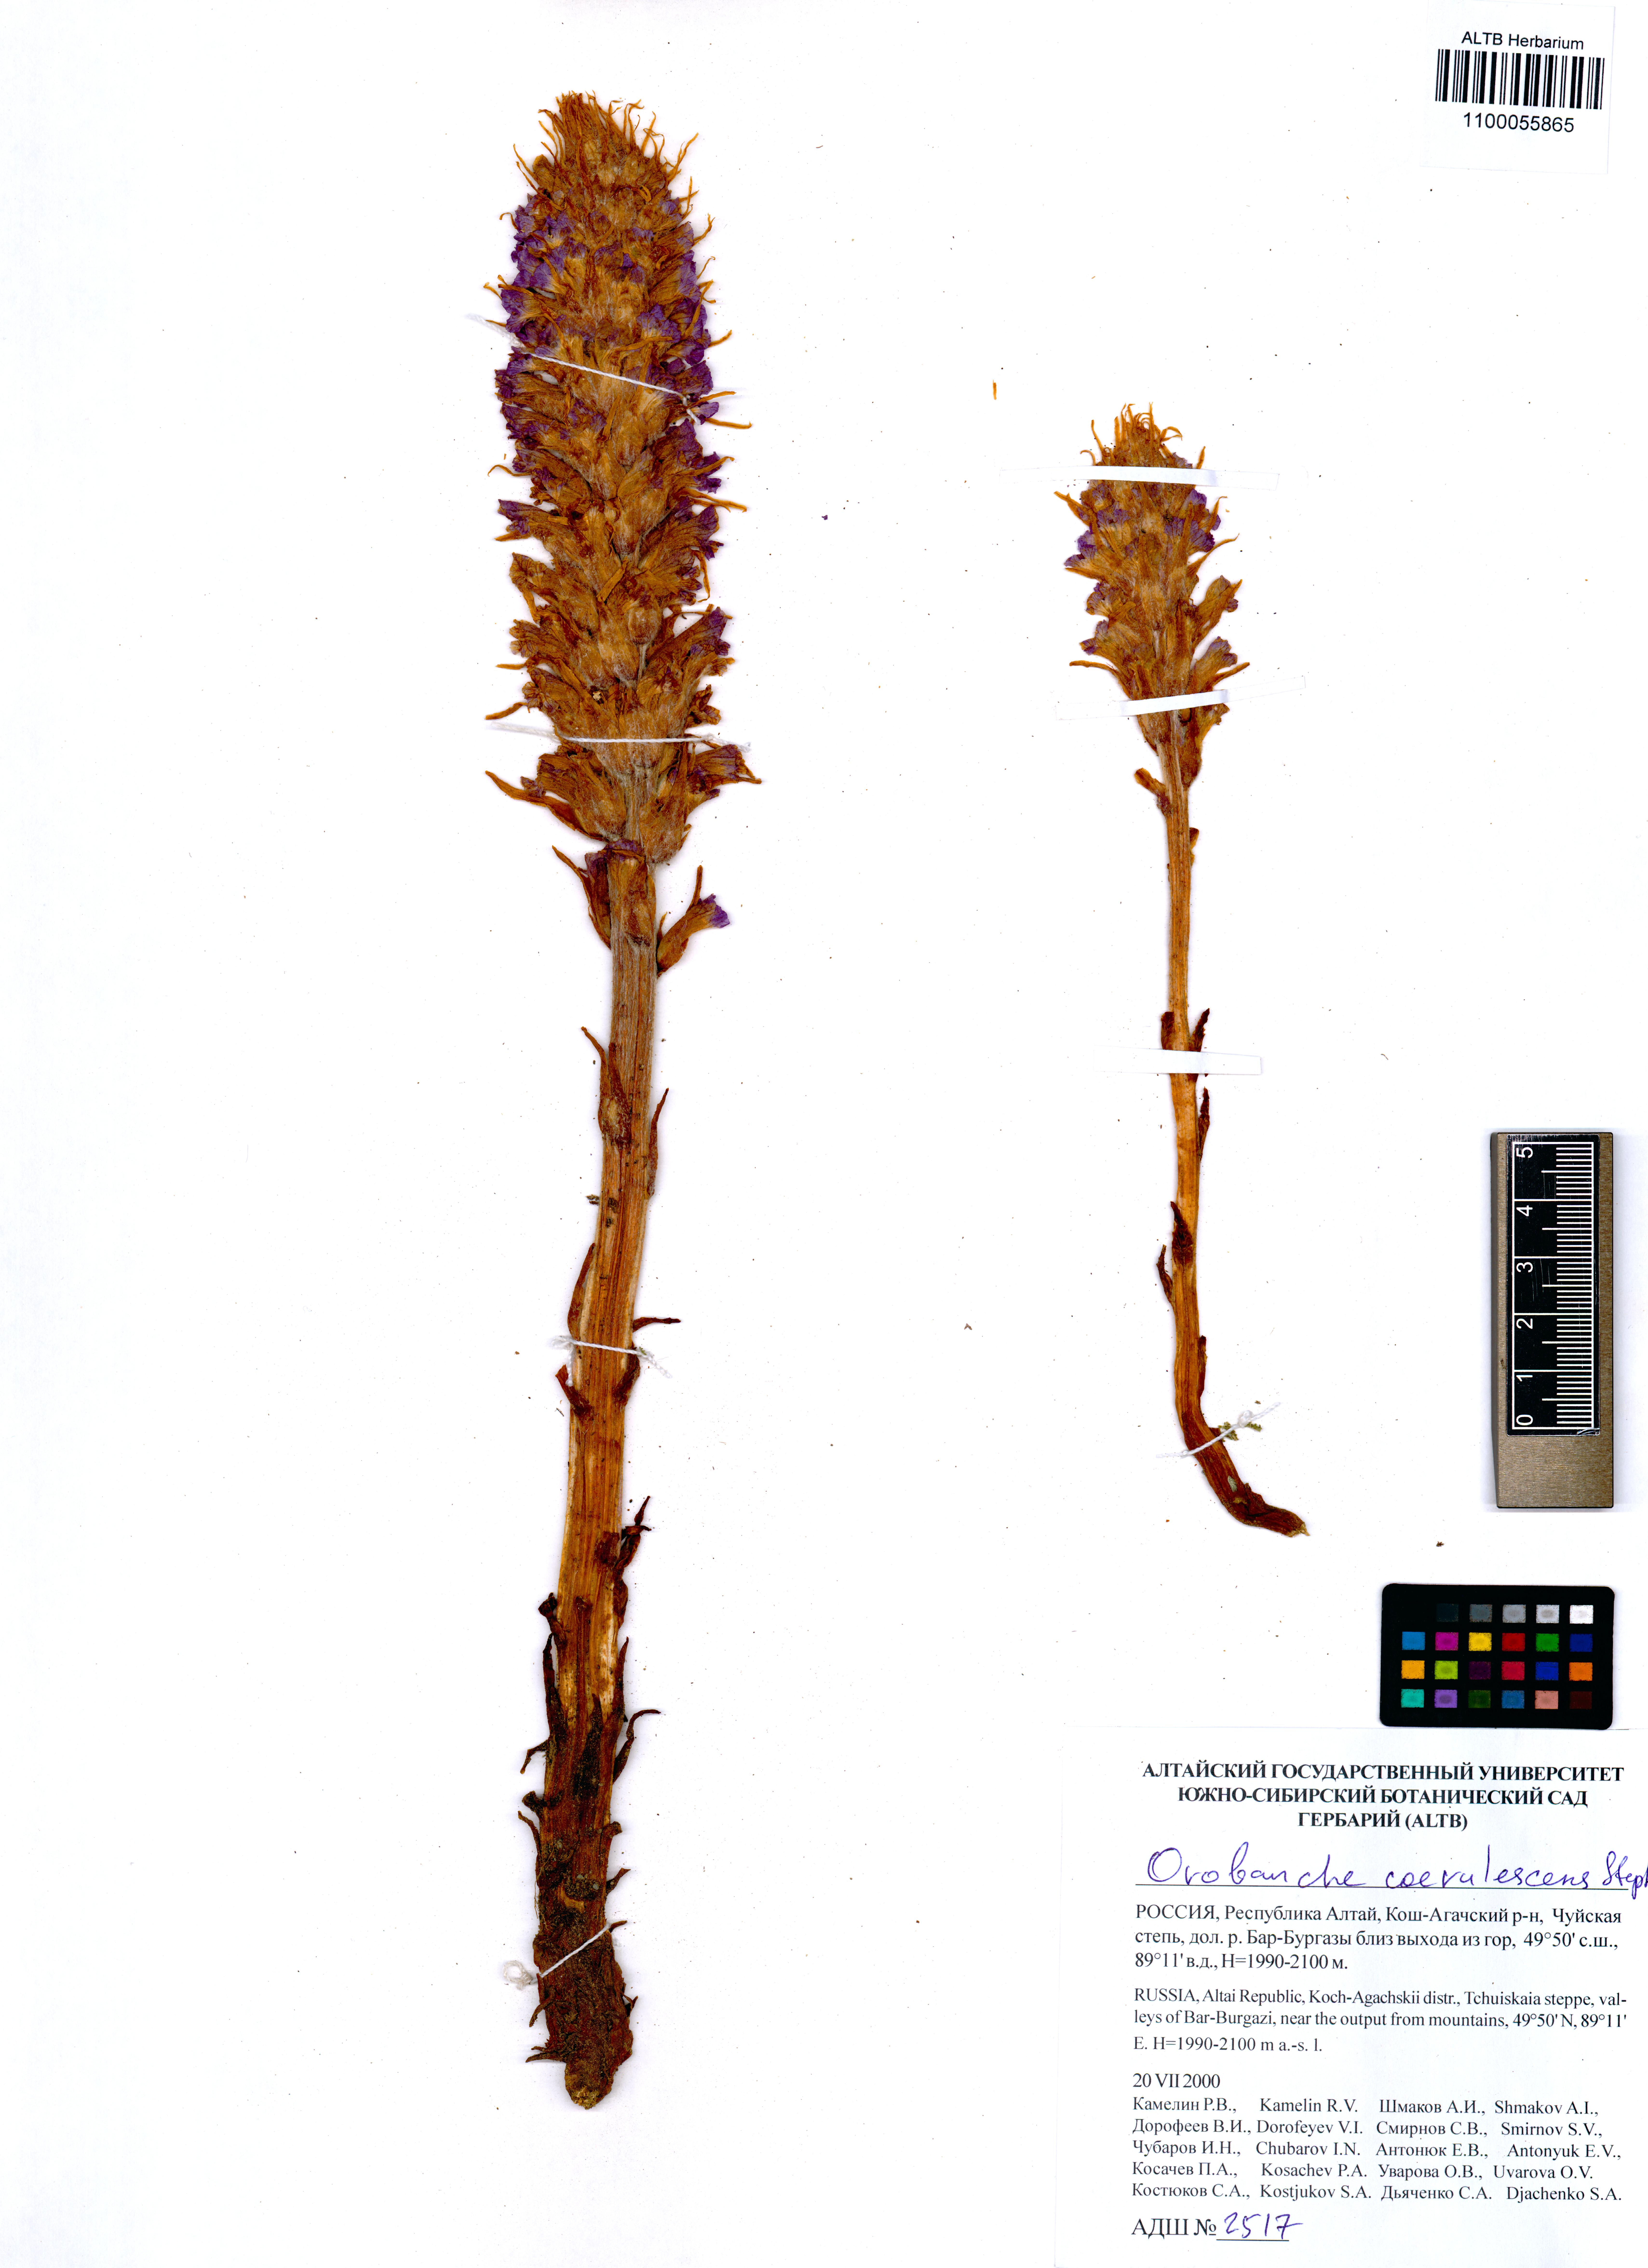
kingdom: Plantae
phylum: Tracheophyta
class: Magnoliopsida
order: Lamiales
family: Orobanchaceae
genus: Orobanche
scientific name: Orobanche coerulescens
